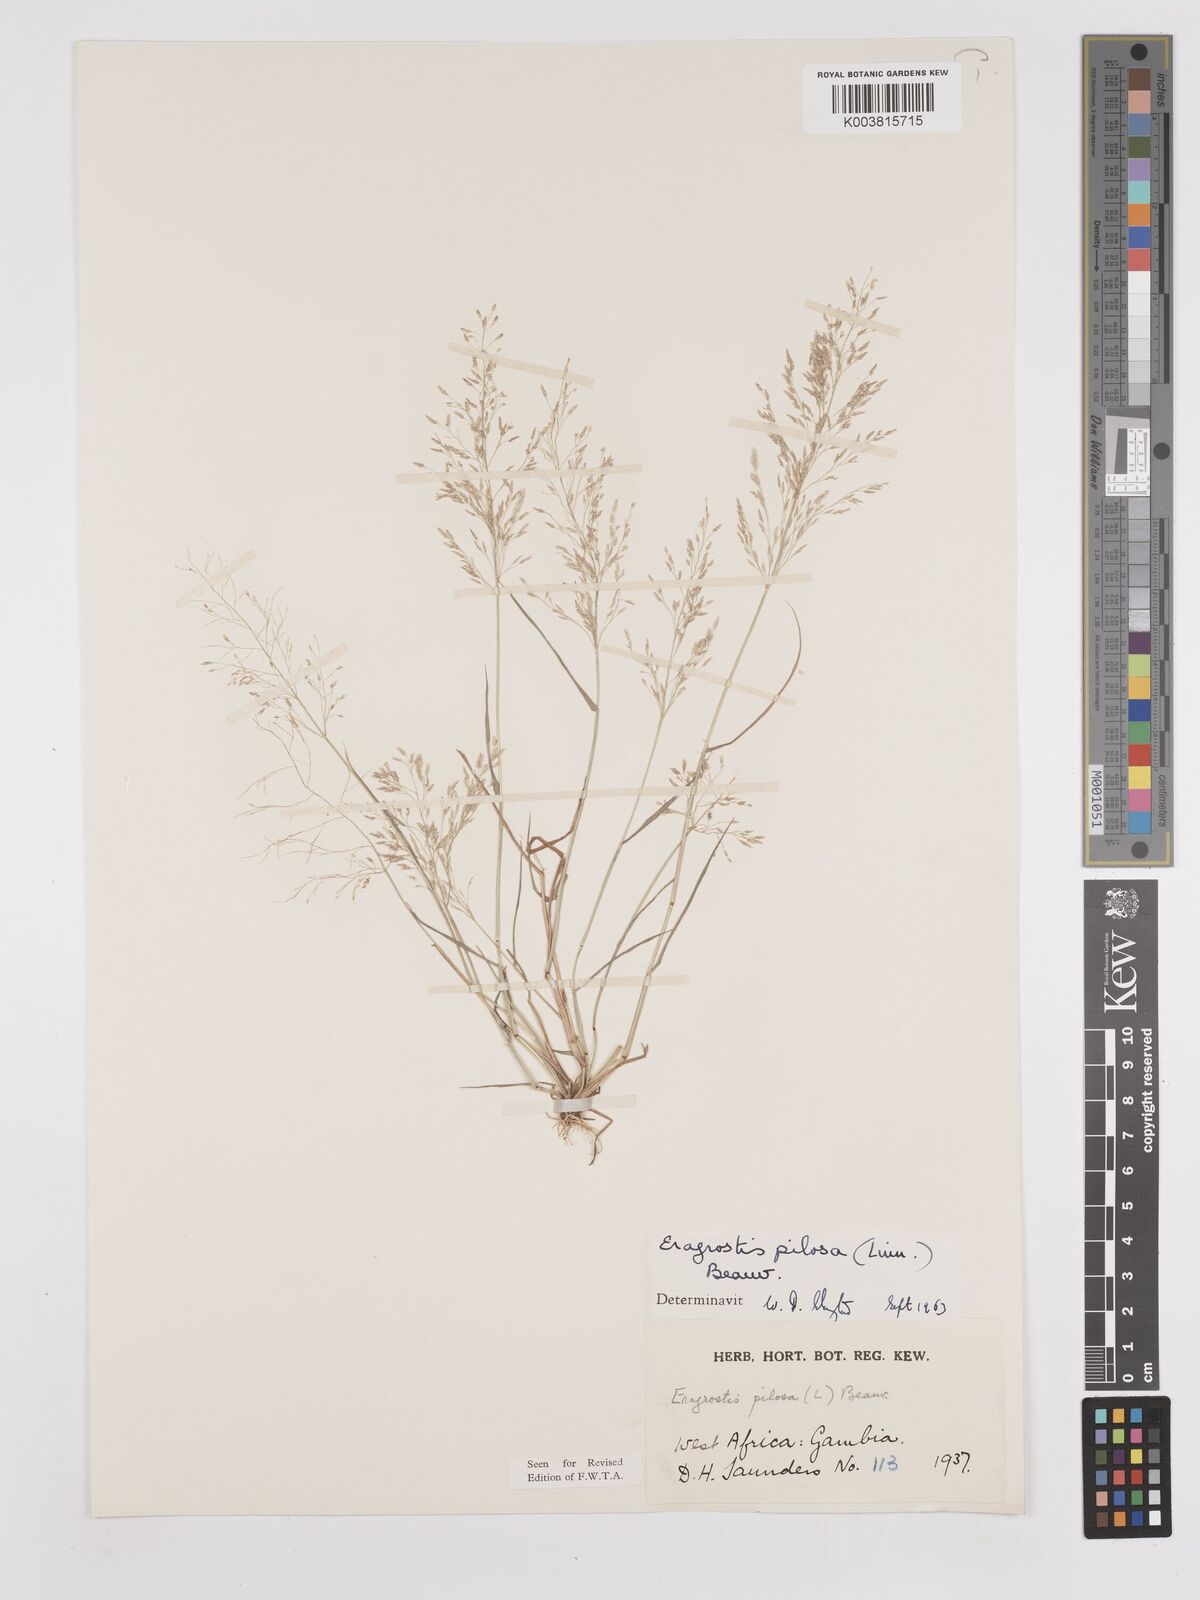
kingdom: Plantae
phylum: Tracheophyta
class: Liliopsida
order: Poales
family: Poaceae
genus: Eragrostis
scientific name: Eragrostis pilosa
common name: Indian lovegrass
